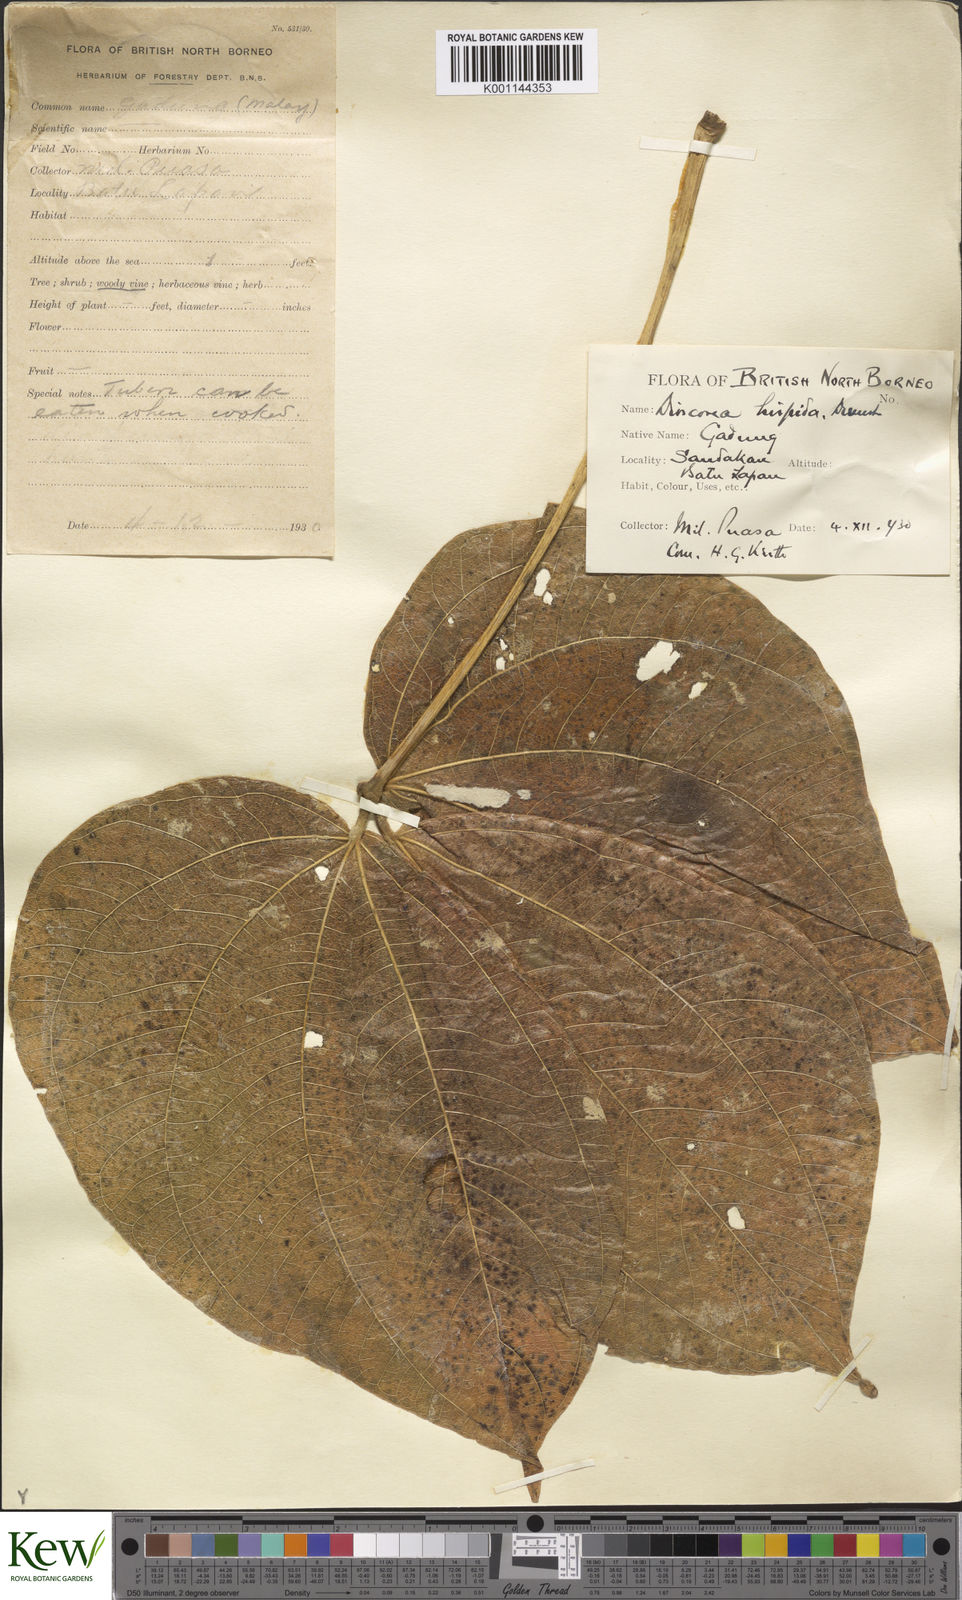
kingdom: Plantae
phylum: Tracheophyta
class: Liliopsida
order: Dioscoreales
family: Dioscoreaceae
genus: Dioscorea
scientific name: Dioscorea hispida
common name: Asiatic bitter yam
